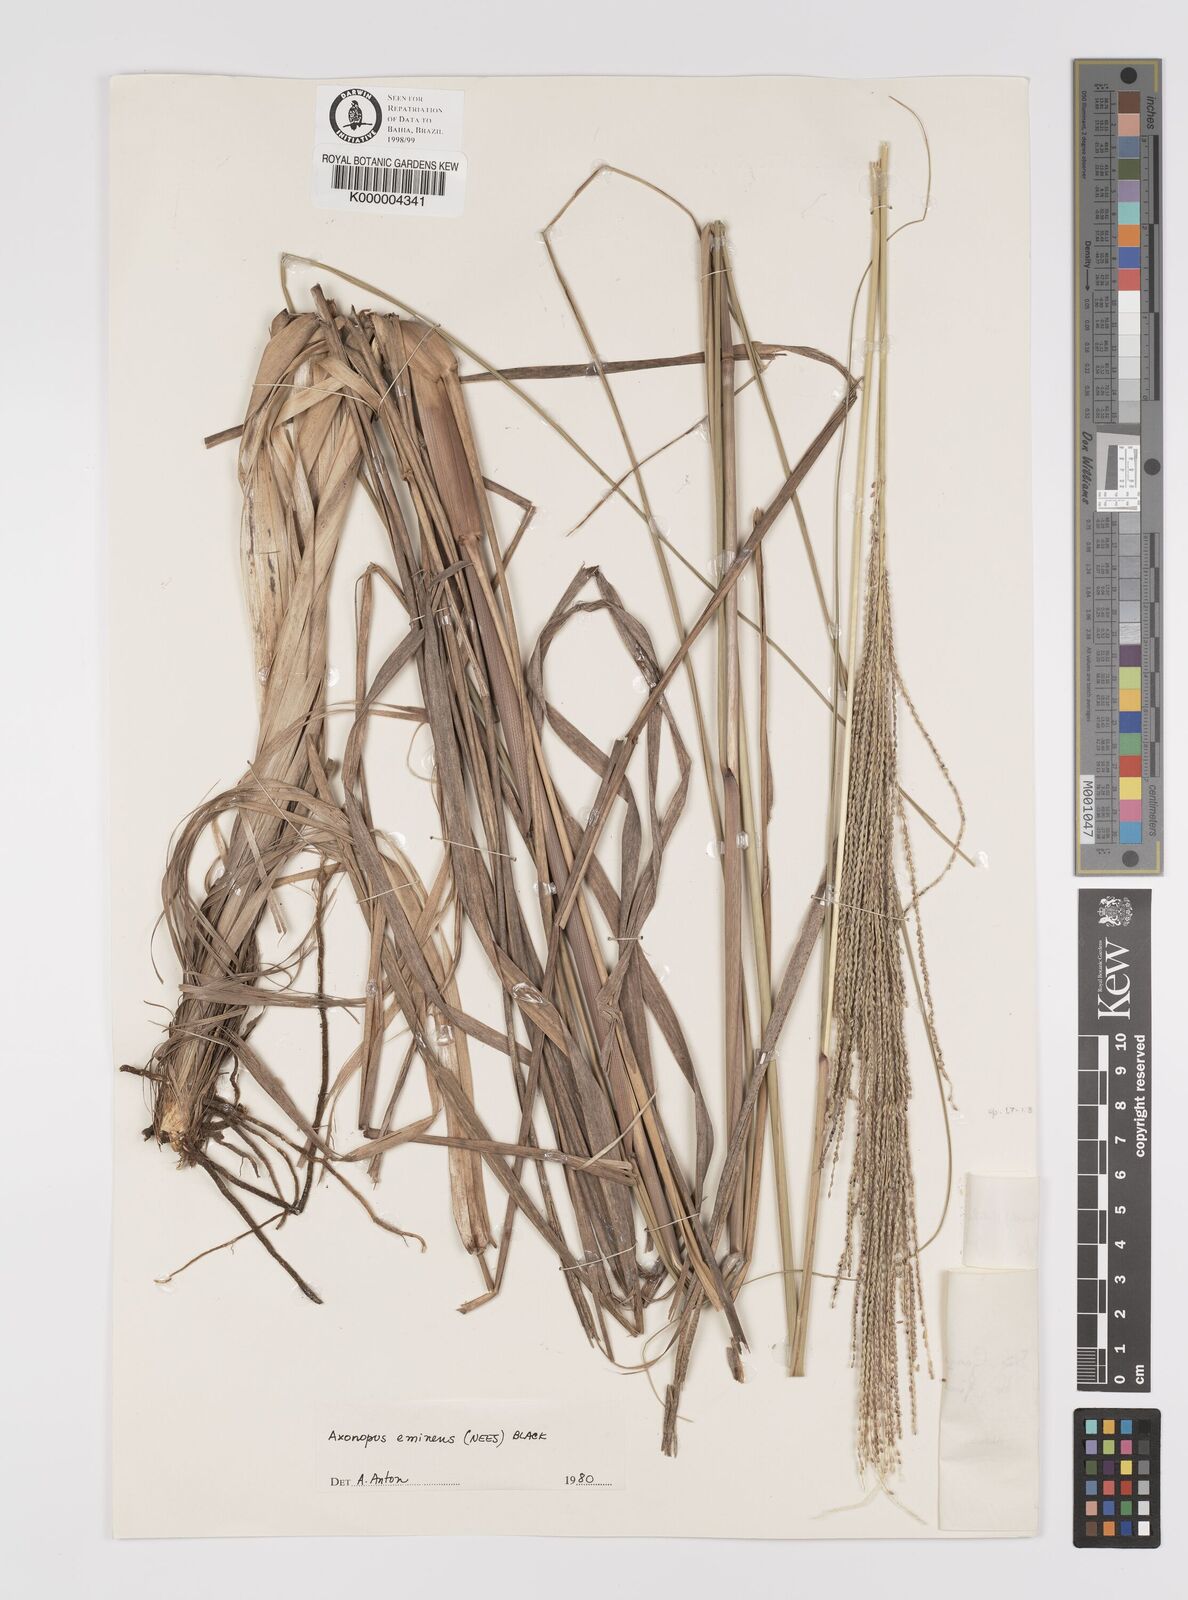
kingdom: Plantae
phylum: Tracheophyta
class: Liliopsida
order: Poales
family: Poaceae
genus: Axonopus
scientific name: Axonopus eminens
